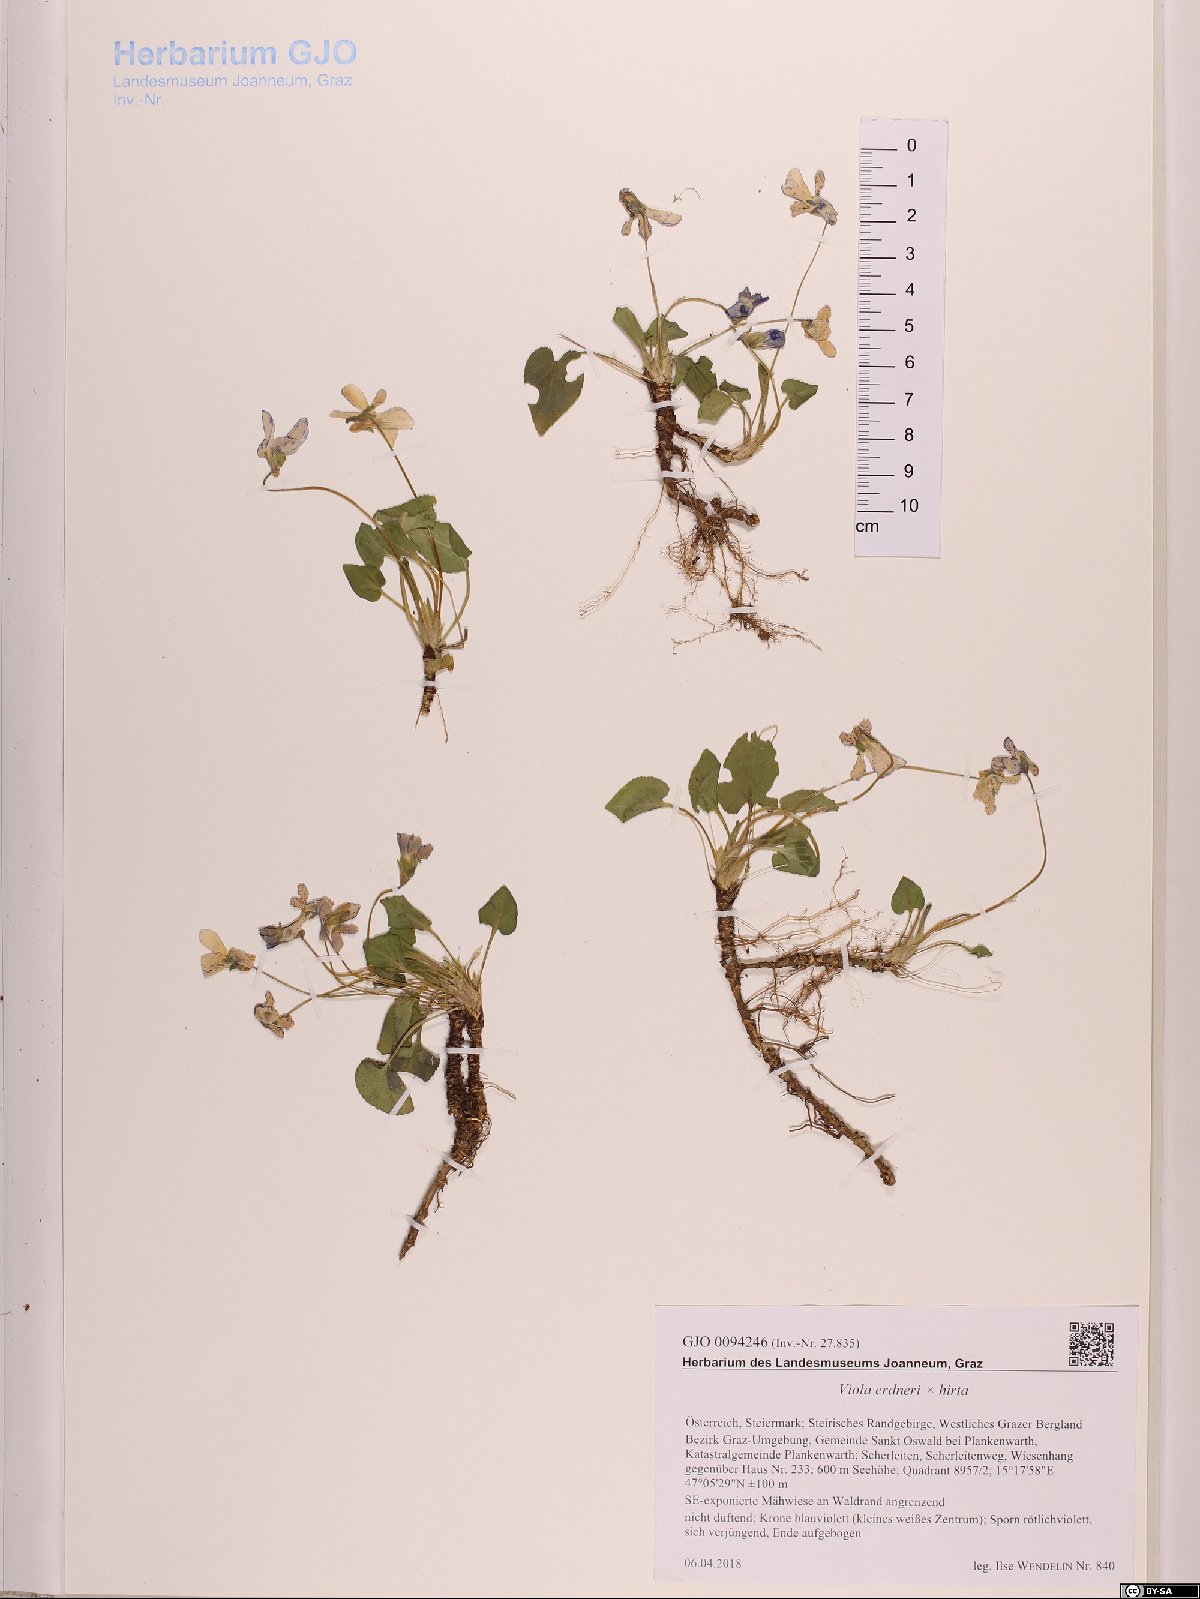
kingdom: Plantae
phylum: Tracheophyta
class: Magnoliopsida
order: Malpighiales
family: Violaceae
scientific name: Violaceae
